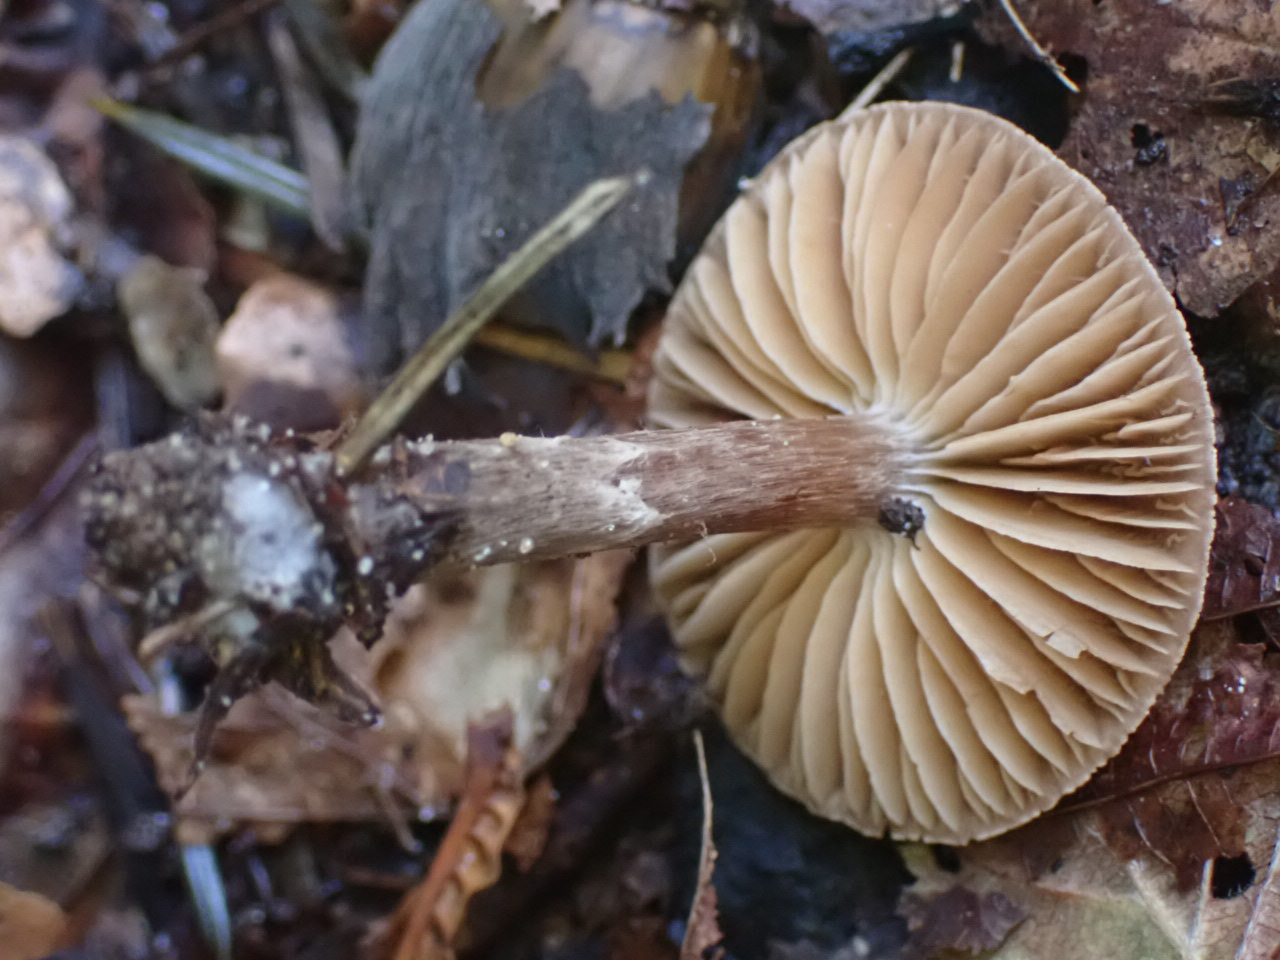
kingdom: Fungi
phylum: Basidiomycota
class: Agaricomycetes
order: Agaricales
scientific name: Agaricales
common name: champignonordenen
